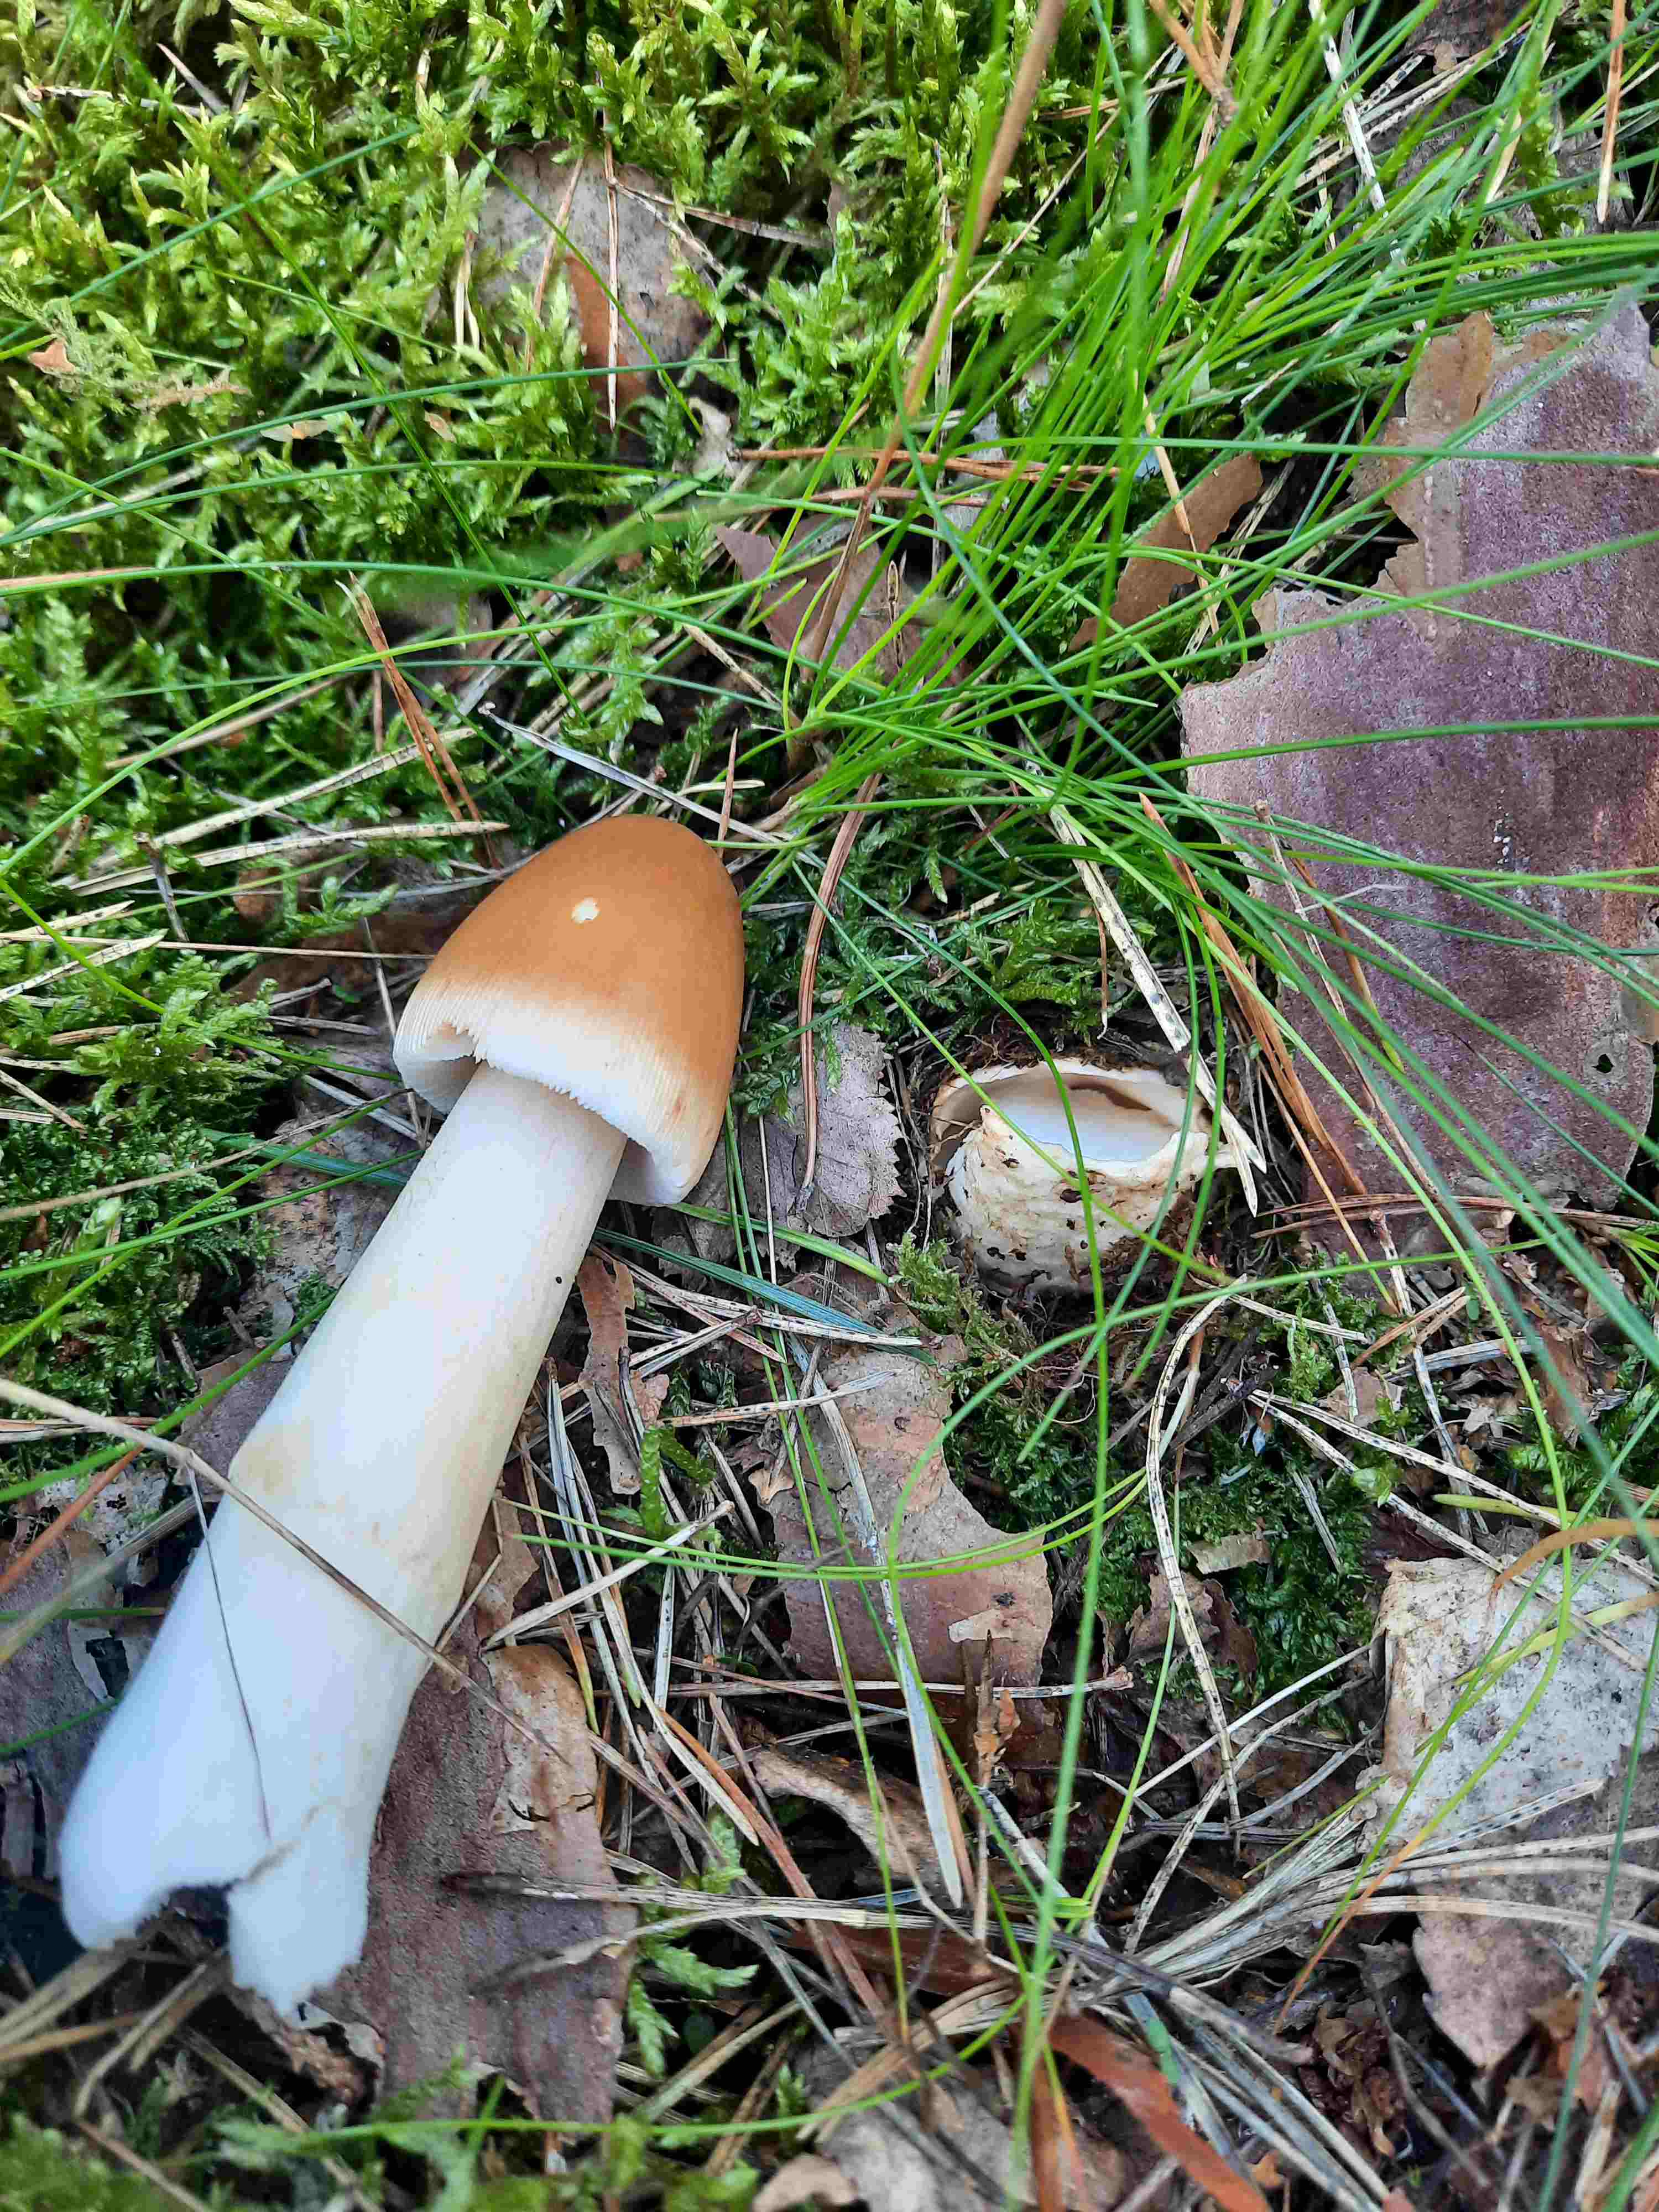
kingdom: Fungi
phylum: Basidiomycota
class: Agaricomycetes
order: Agaricales
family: Amanitaceae
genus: Amanita
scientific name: Amanita fulva
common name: brun kam-fluesvamp
